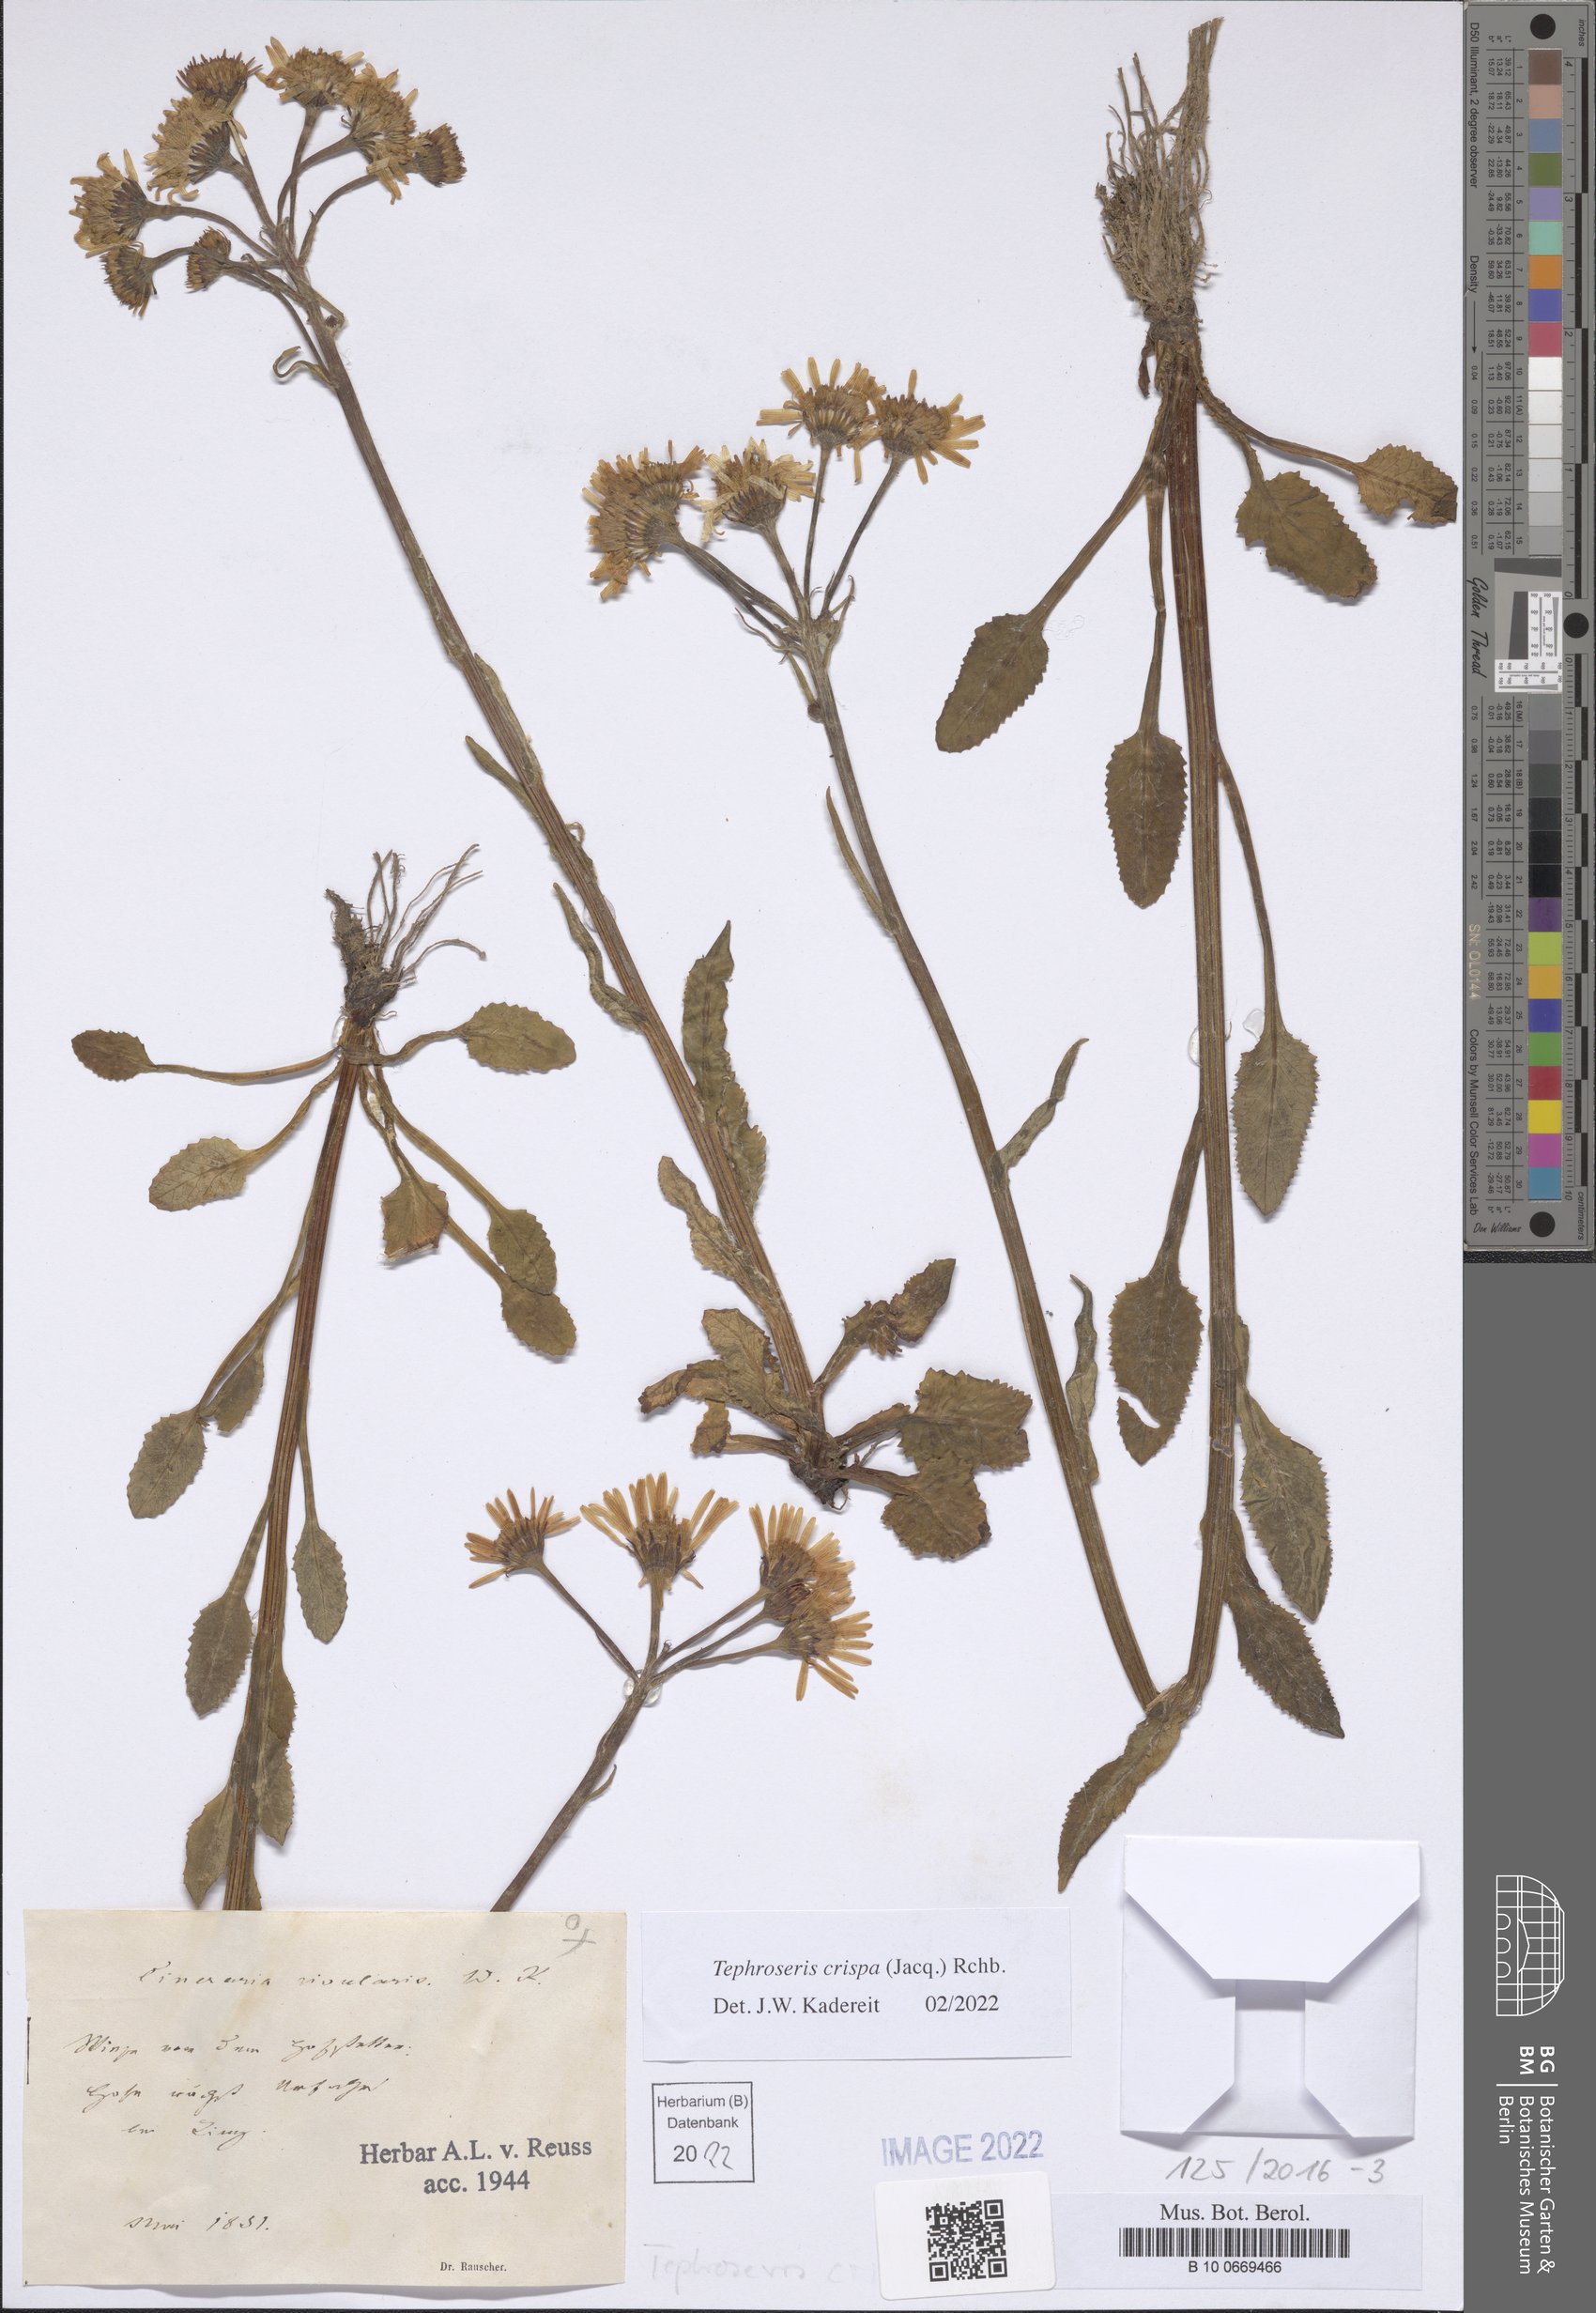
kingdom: Plantae
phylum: Tracheophyta
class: Magnoliopsida
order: Asterales
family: Asteraceae
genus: Tephroseris
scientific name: Tephroseris crispa
